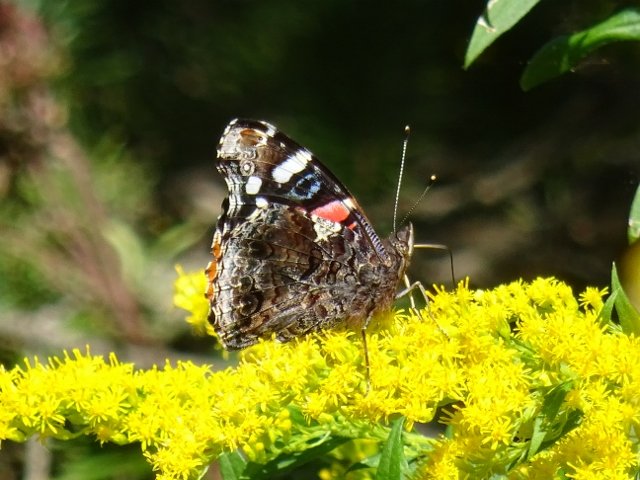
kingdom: Animalia
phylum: Arthropoda
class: Insecta
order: Lepidoptera
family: Nymphalidae
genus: Vanessa
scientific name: Vanessa atalanta
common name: Red Admiral
